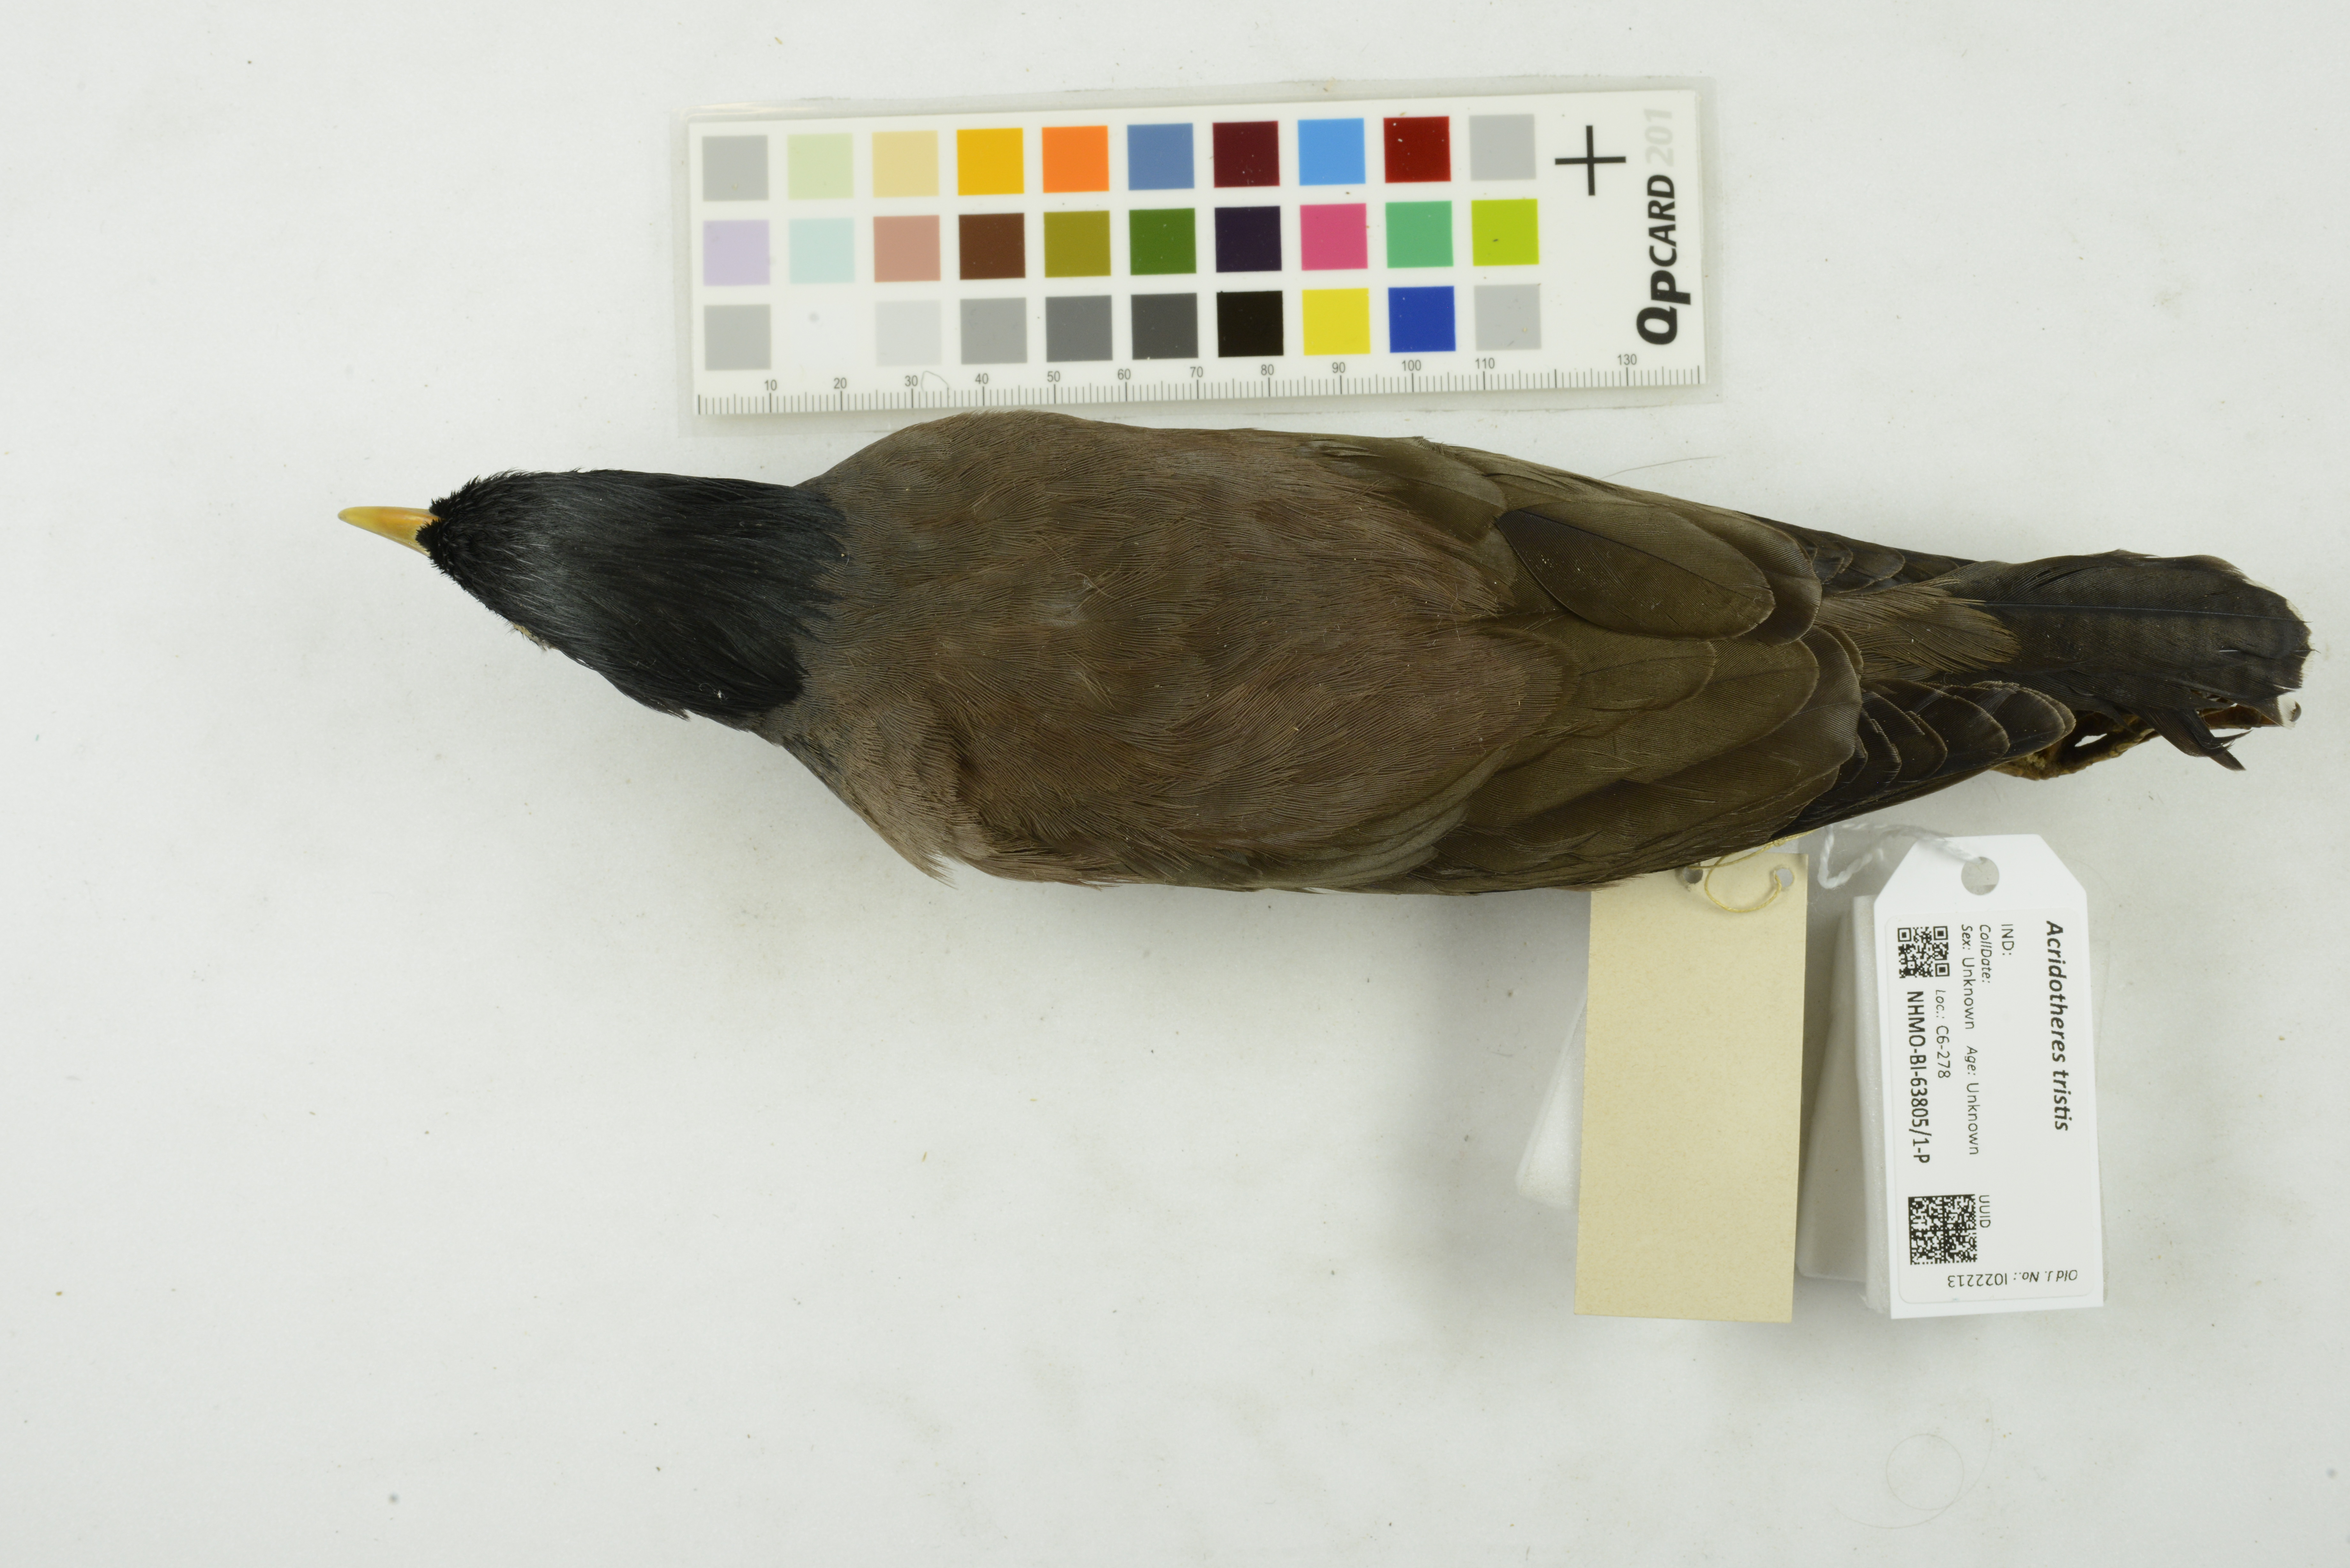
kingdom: Animalia
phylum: Chordata
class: Aves
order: Passeriformes
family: Sturnidae
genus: Acridotheres
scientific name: Acridotheres tristis
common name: Common myna
